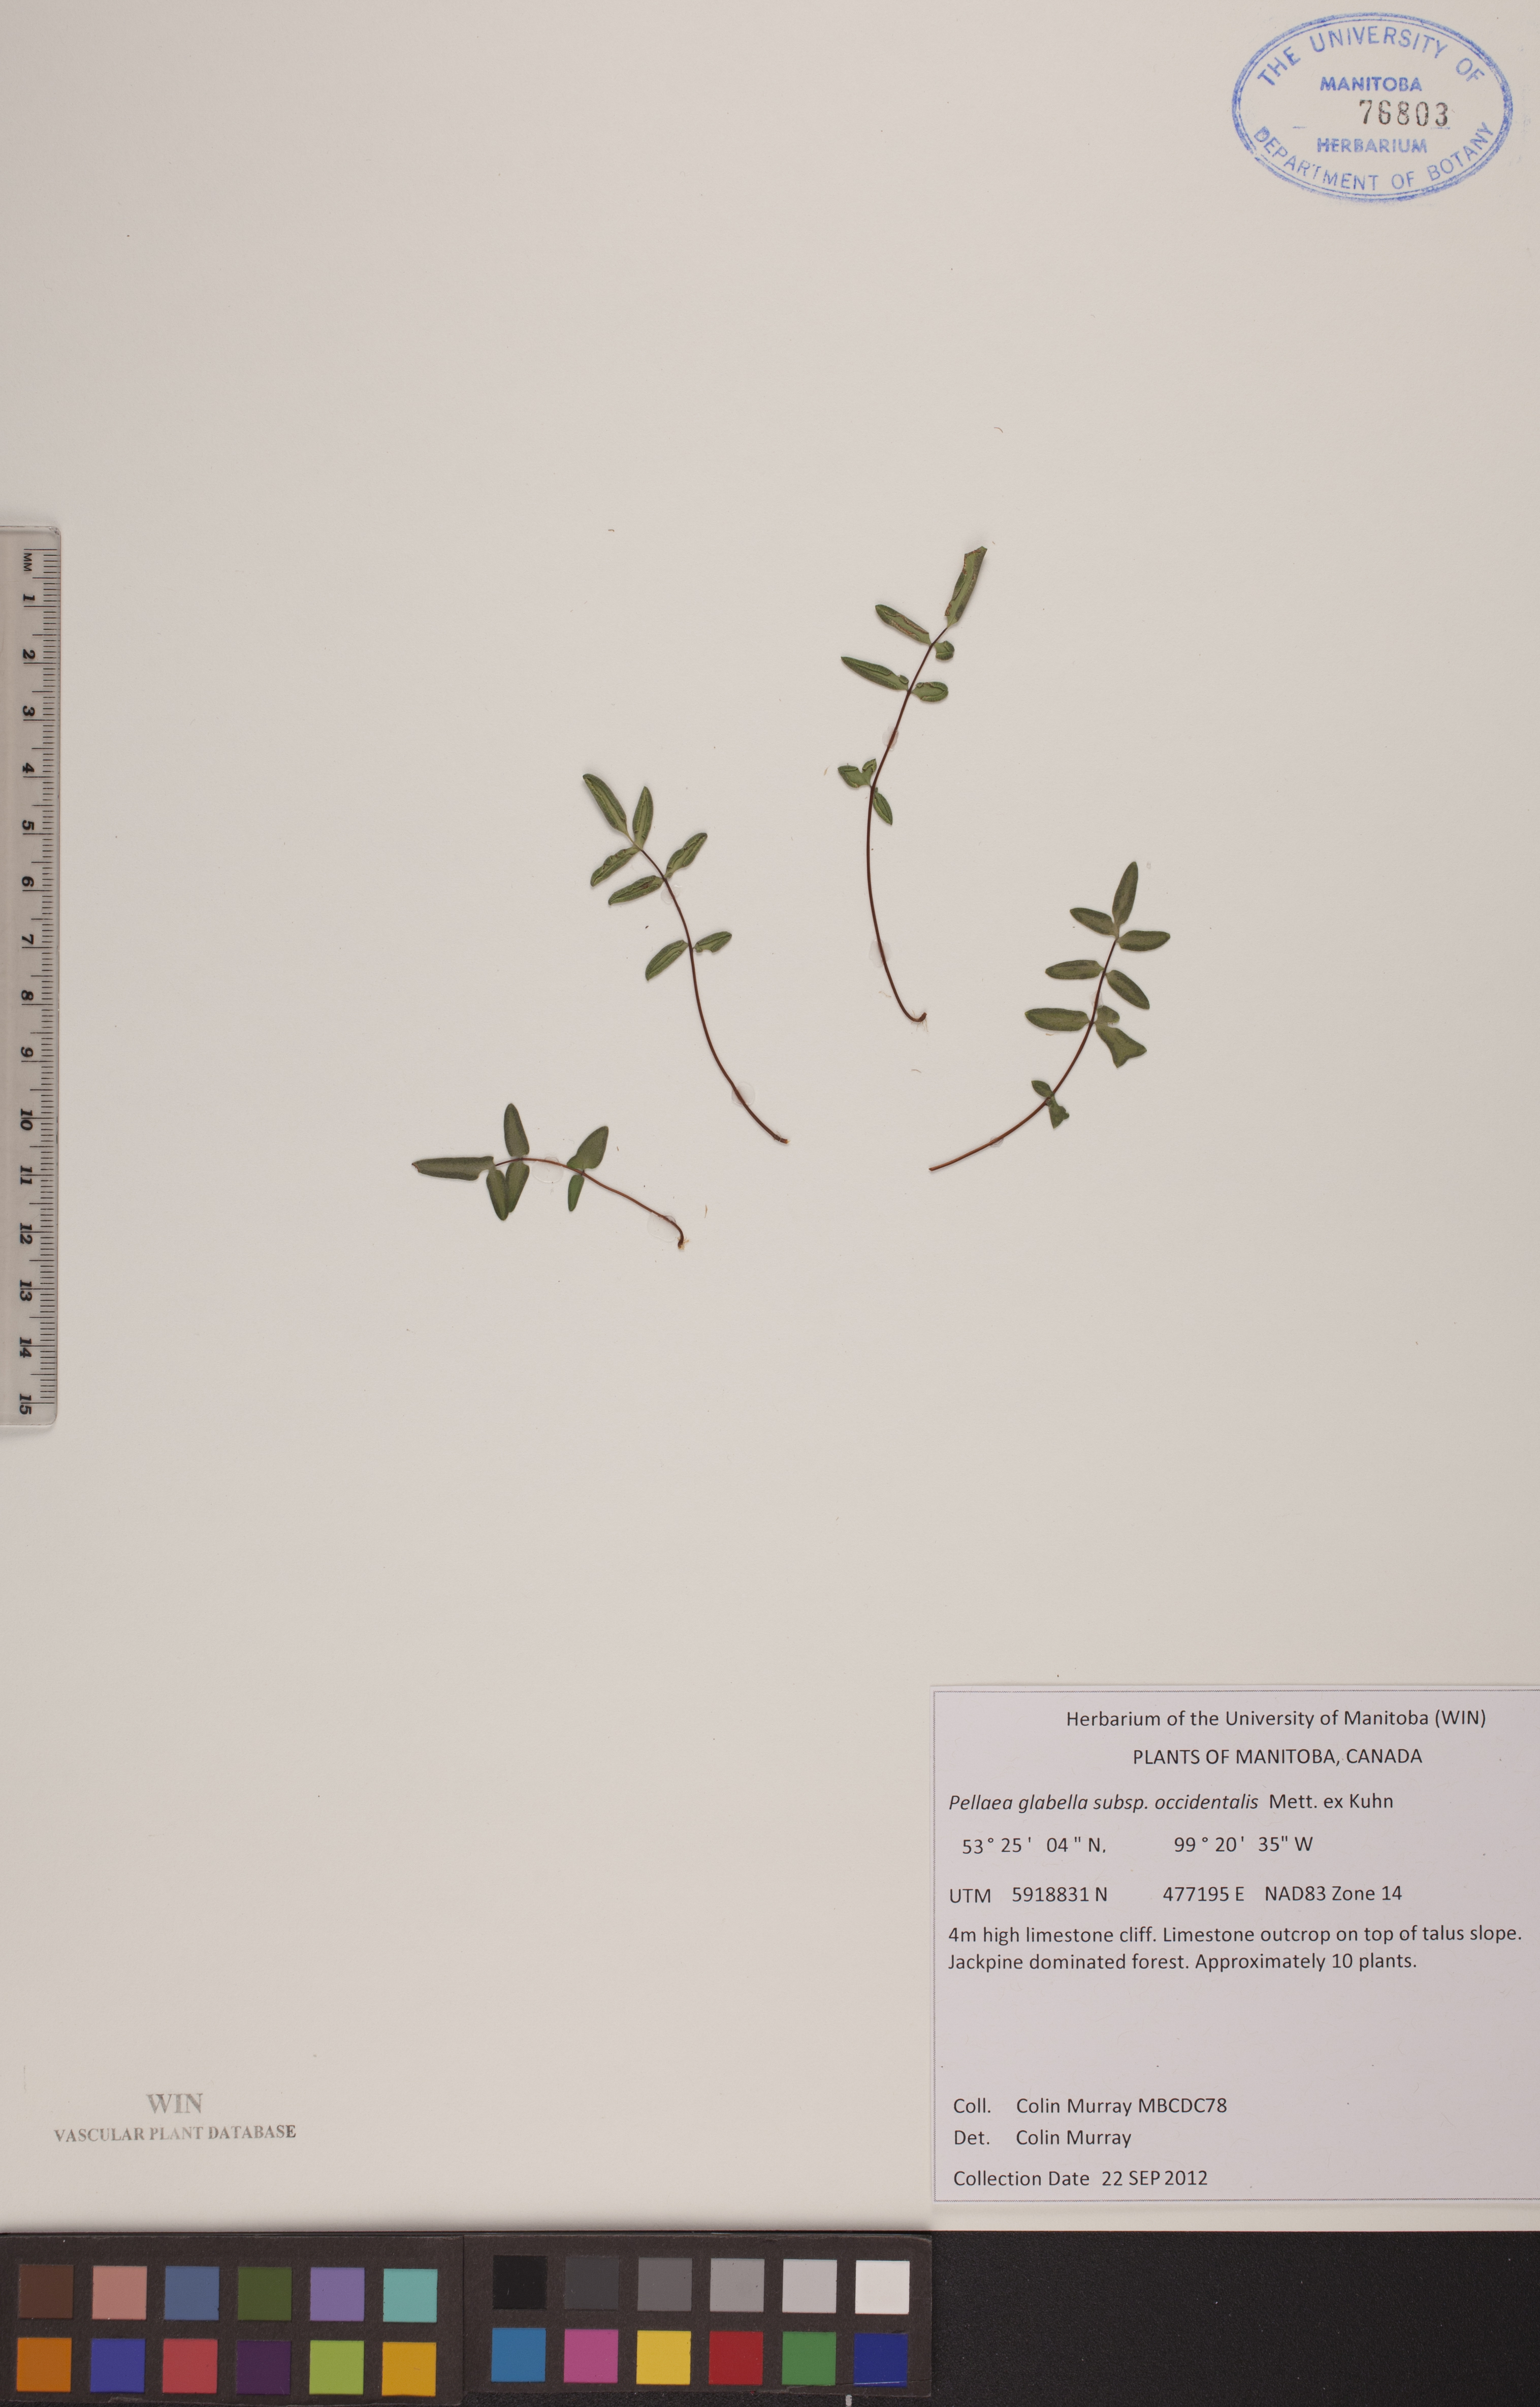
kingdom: Plantae
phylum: Tracheophyta
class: Polypodiopsida
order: Polypodiales
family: Pteridaceae
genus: Pellaea
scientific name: Pellaea glabella
